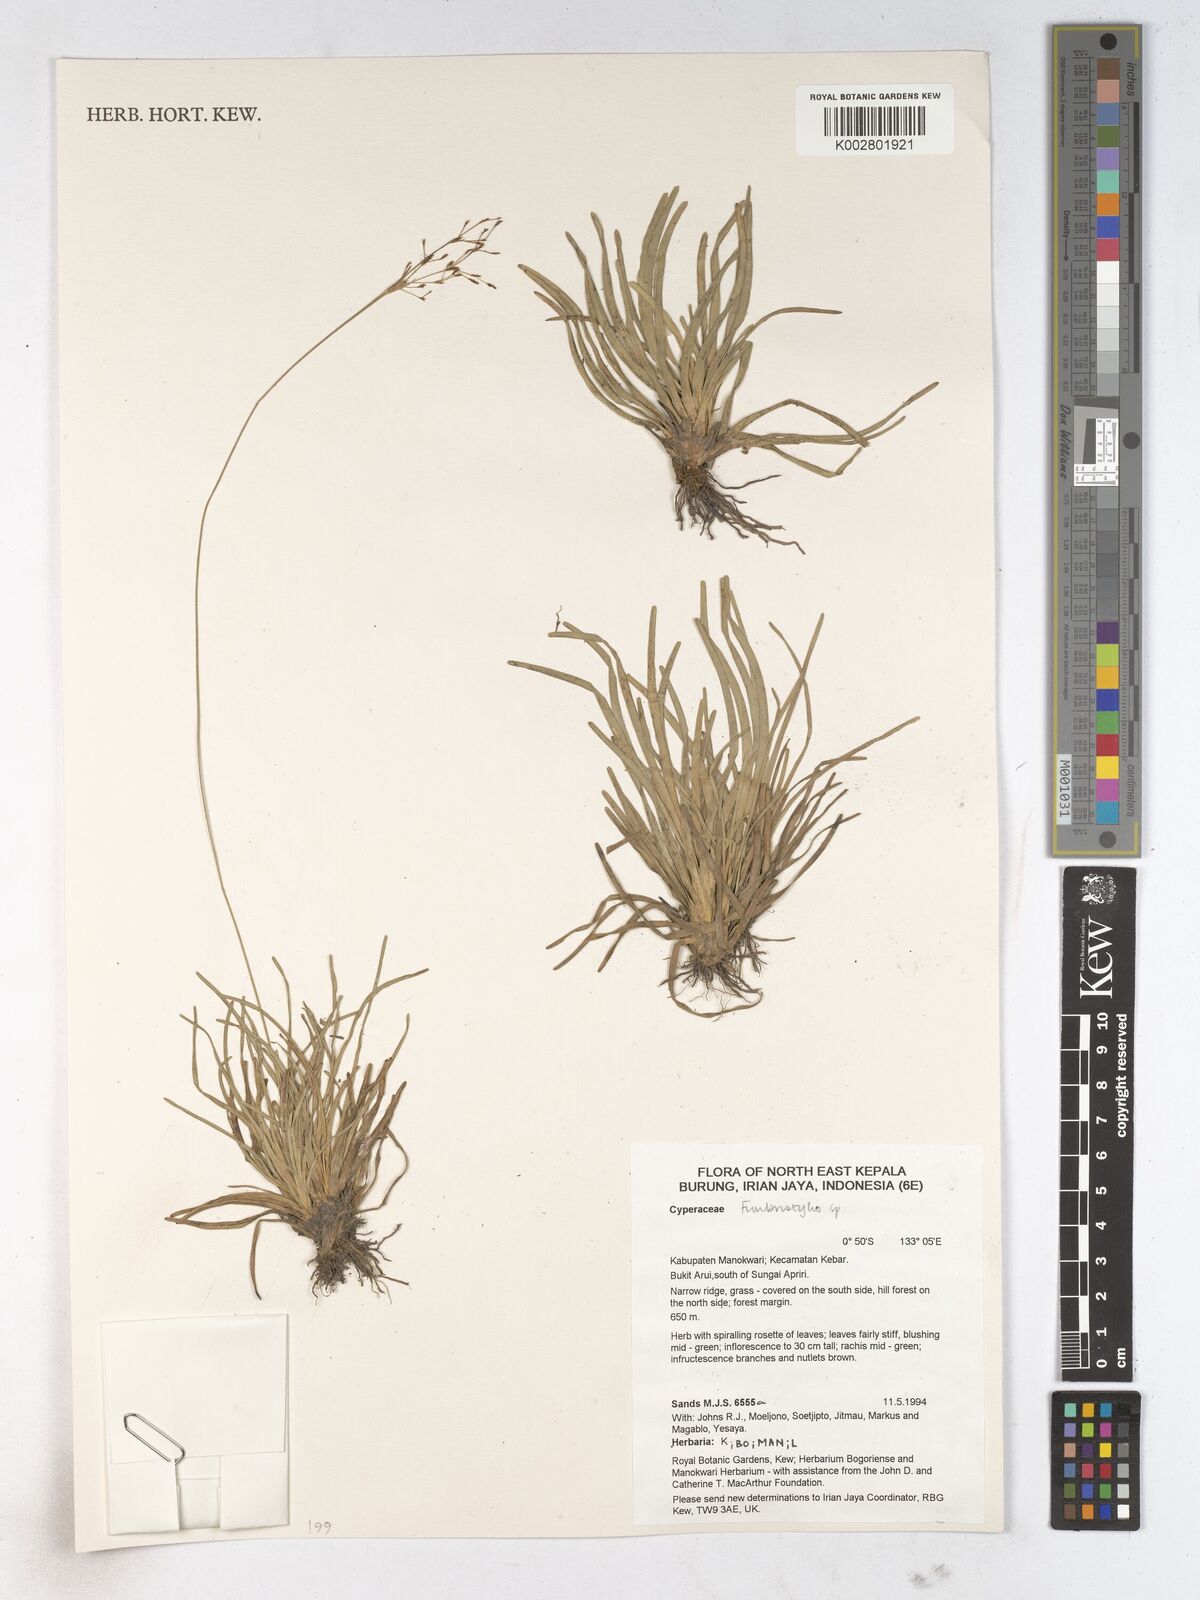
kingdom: Plantae
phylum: Tracheophyta
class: Liliopsida
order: Poales
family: Cyperaceae
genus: Fimbristylis
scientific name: Fimbristylis
